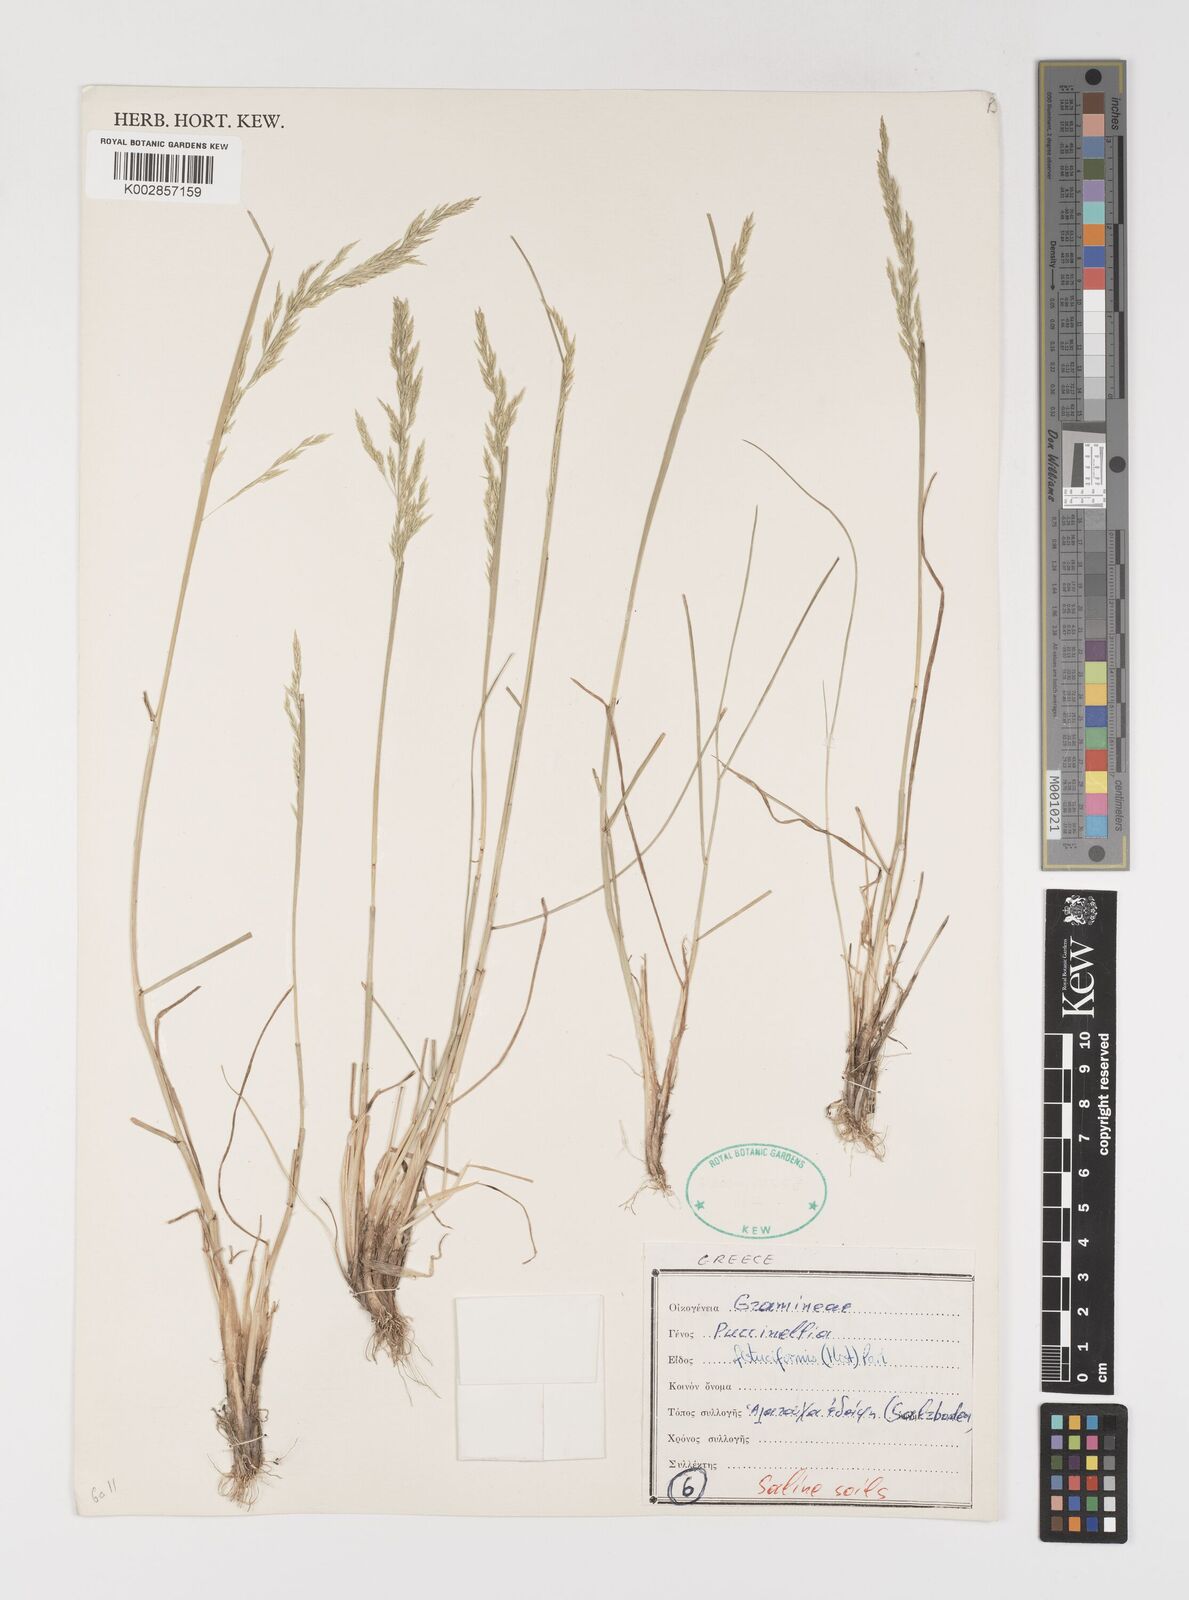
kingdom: Plantae
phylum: Tracheophyta
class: Liliopsida
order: Poales
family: Poaceae
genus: Puccinellia
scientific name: Puccinellia festuciformis
